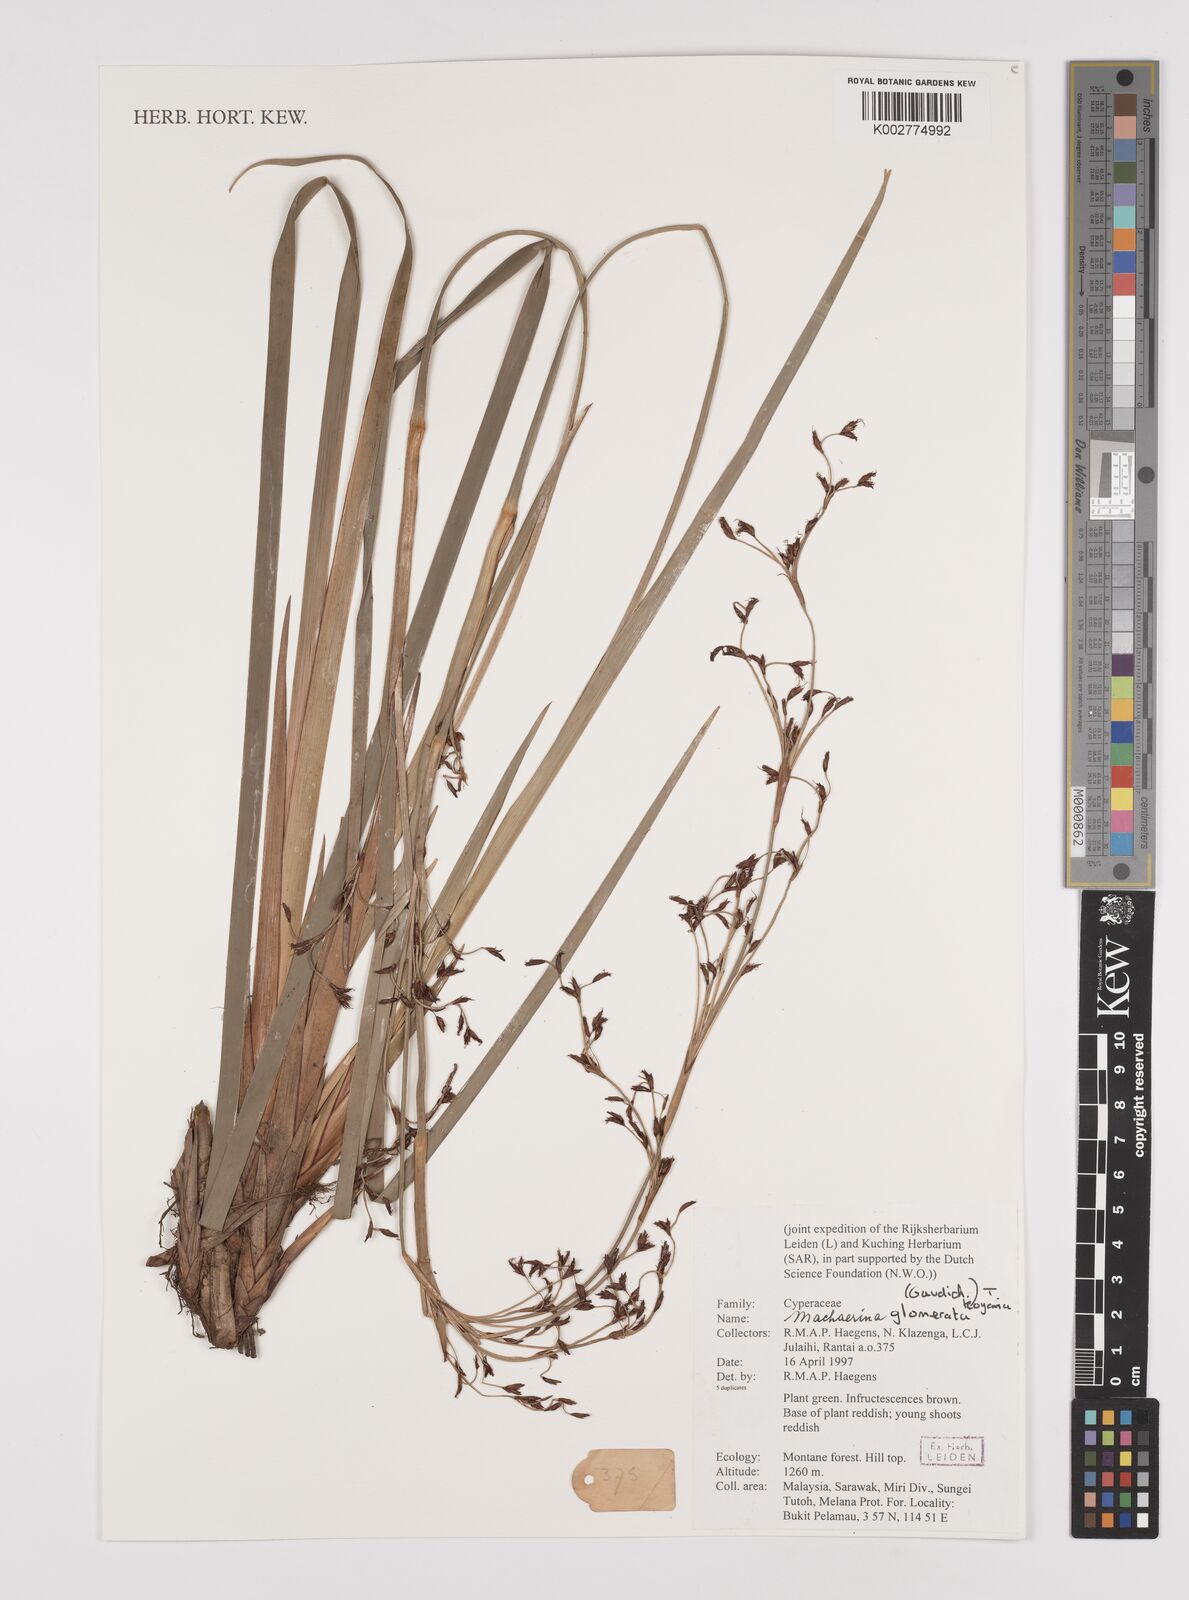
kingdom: Plantae
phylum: Tracheophyta
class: Liliopsida
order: Poales
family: Cyperaceae
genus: Machaerina
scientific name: Machaerina glomerata
